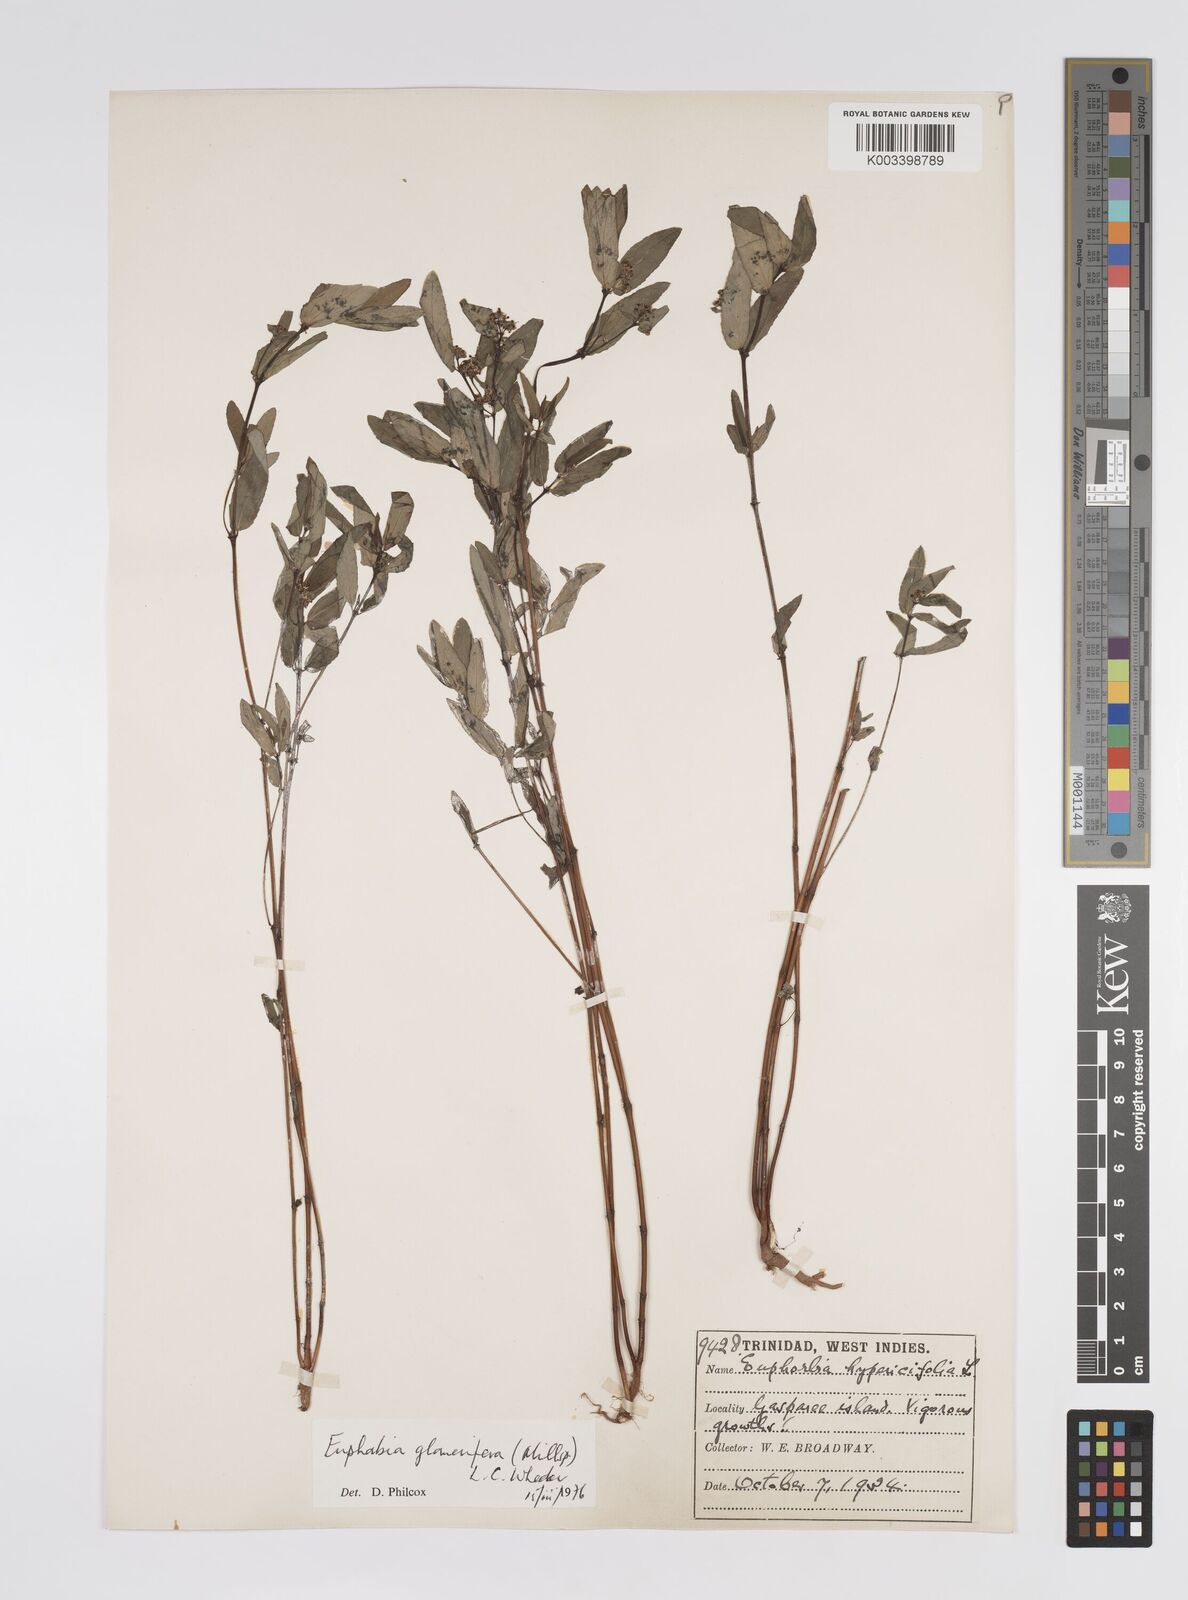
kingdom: Plantae
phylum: Tracheophyta
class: Magnoliopsida
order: Malpighiales
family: Euphorbiaceae
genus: Euphorbia
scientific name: Euphorbia hypericifolia
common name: Graceful sandmat
